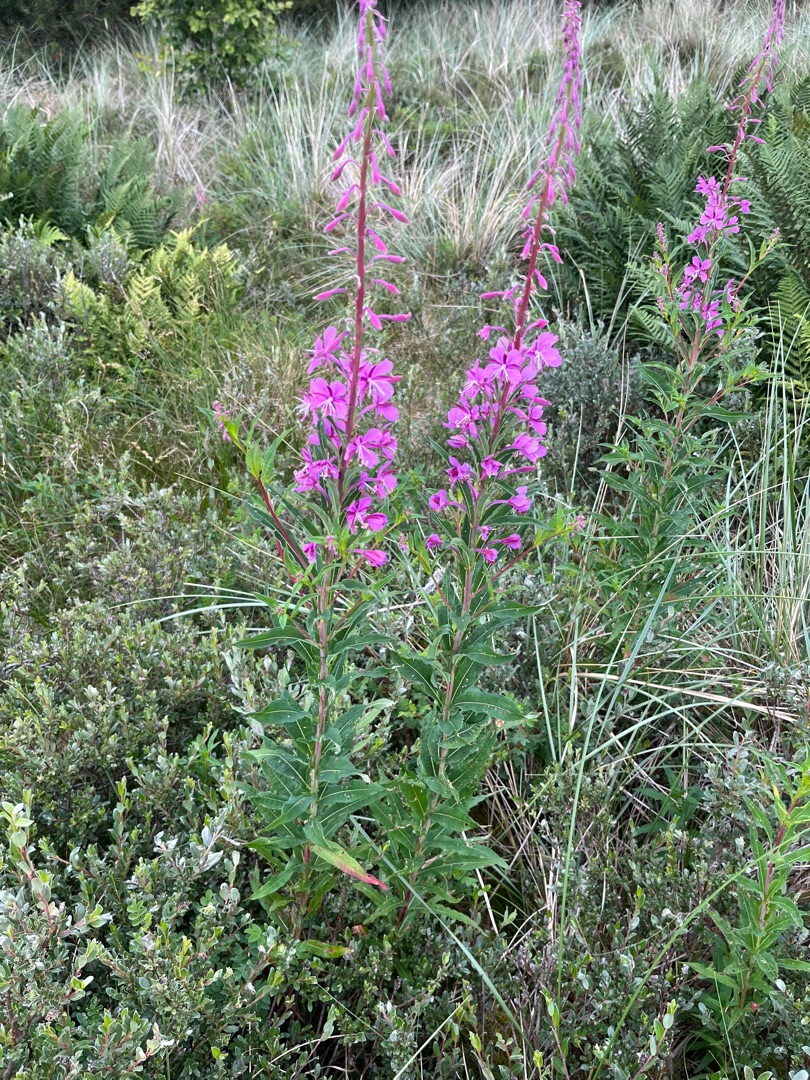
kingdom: Plantae
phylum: Tracheophyta
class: Magnoliopsida
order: Myrtales
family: Onagraceae
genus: Chamaenerion
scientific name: Chamaenerion angustifolium
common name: Gederams
